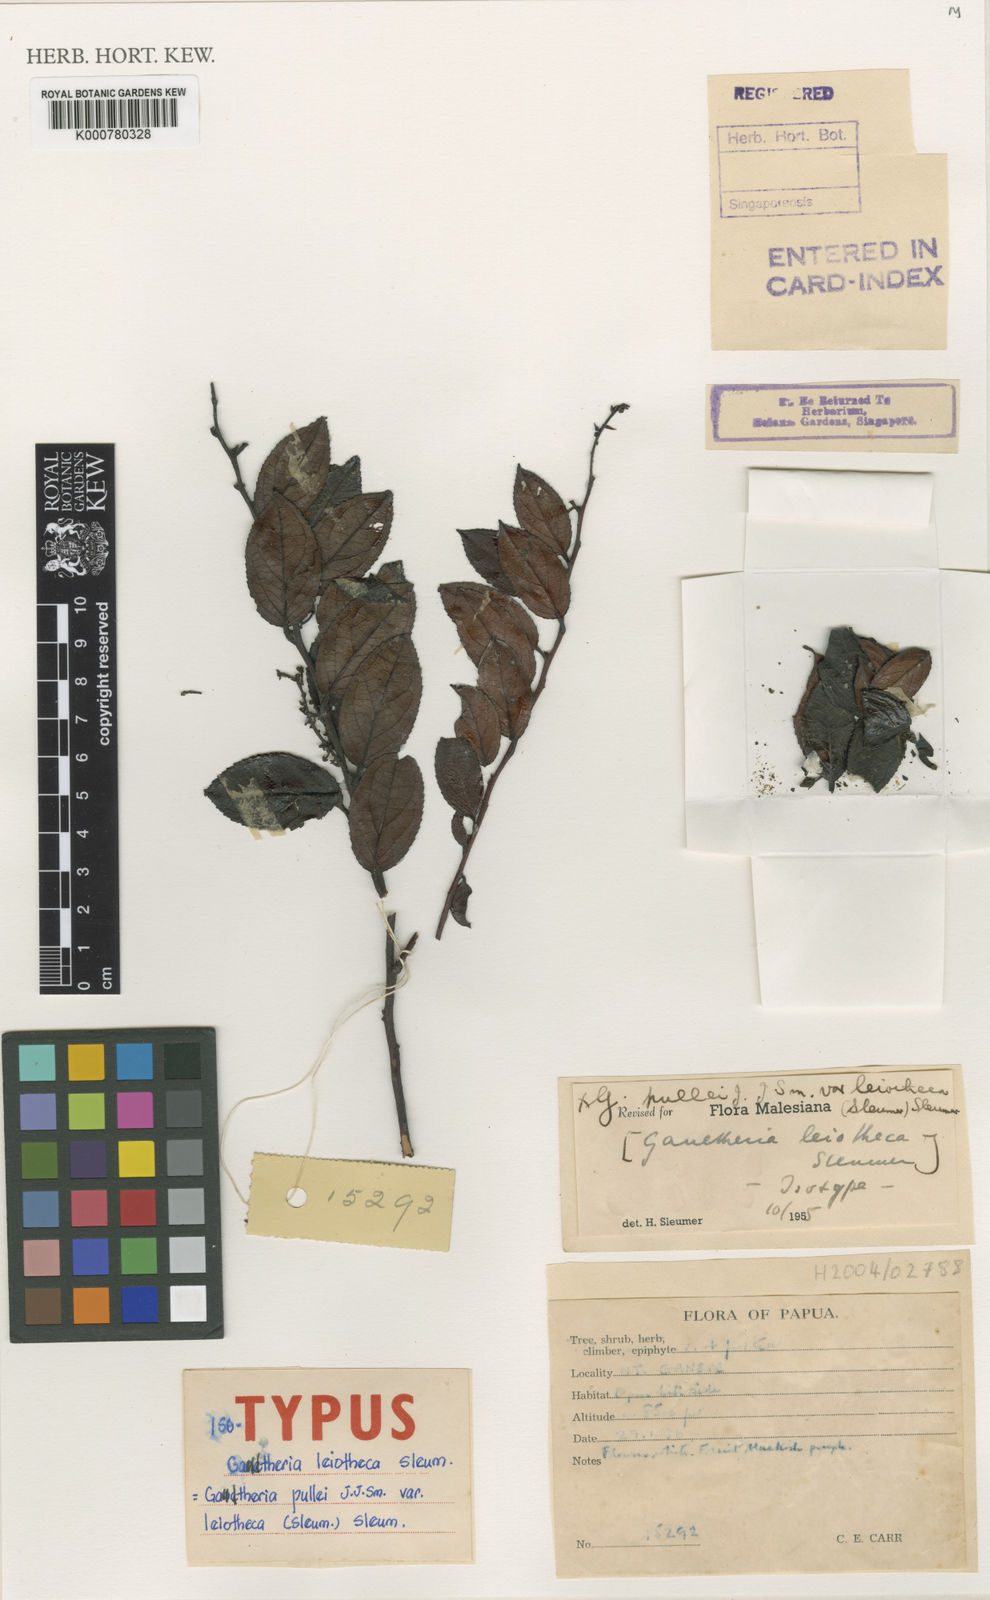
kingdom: Plantae
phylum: Tracheophyta
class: Magnoliopsida
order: Ericales
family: Ericaceae
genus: Gaultheria
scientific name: Gaultheria pullei
